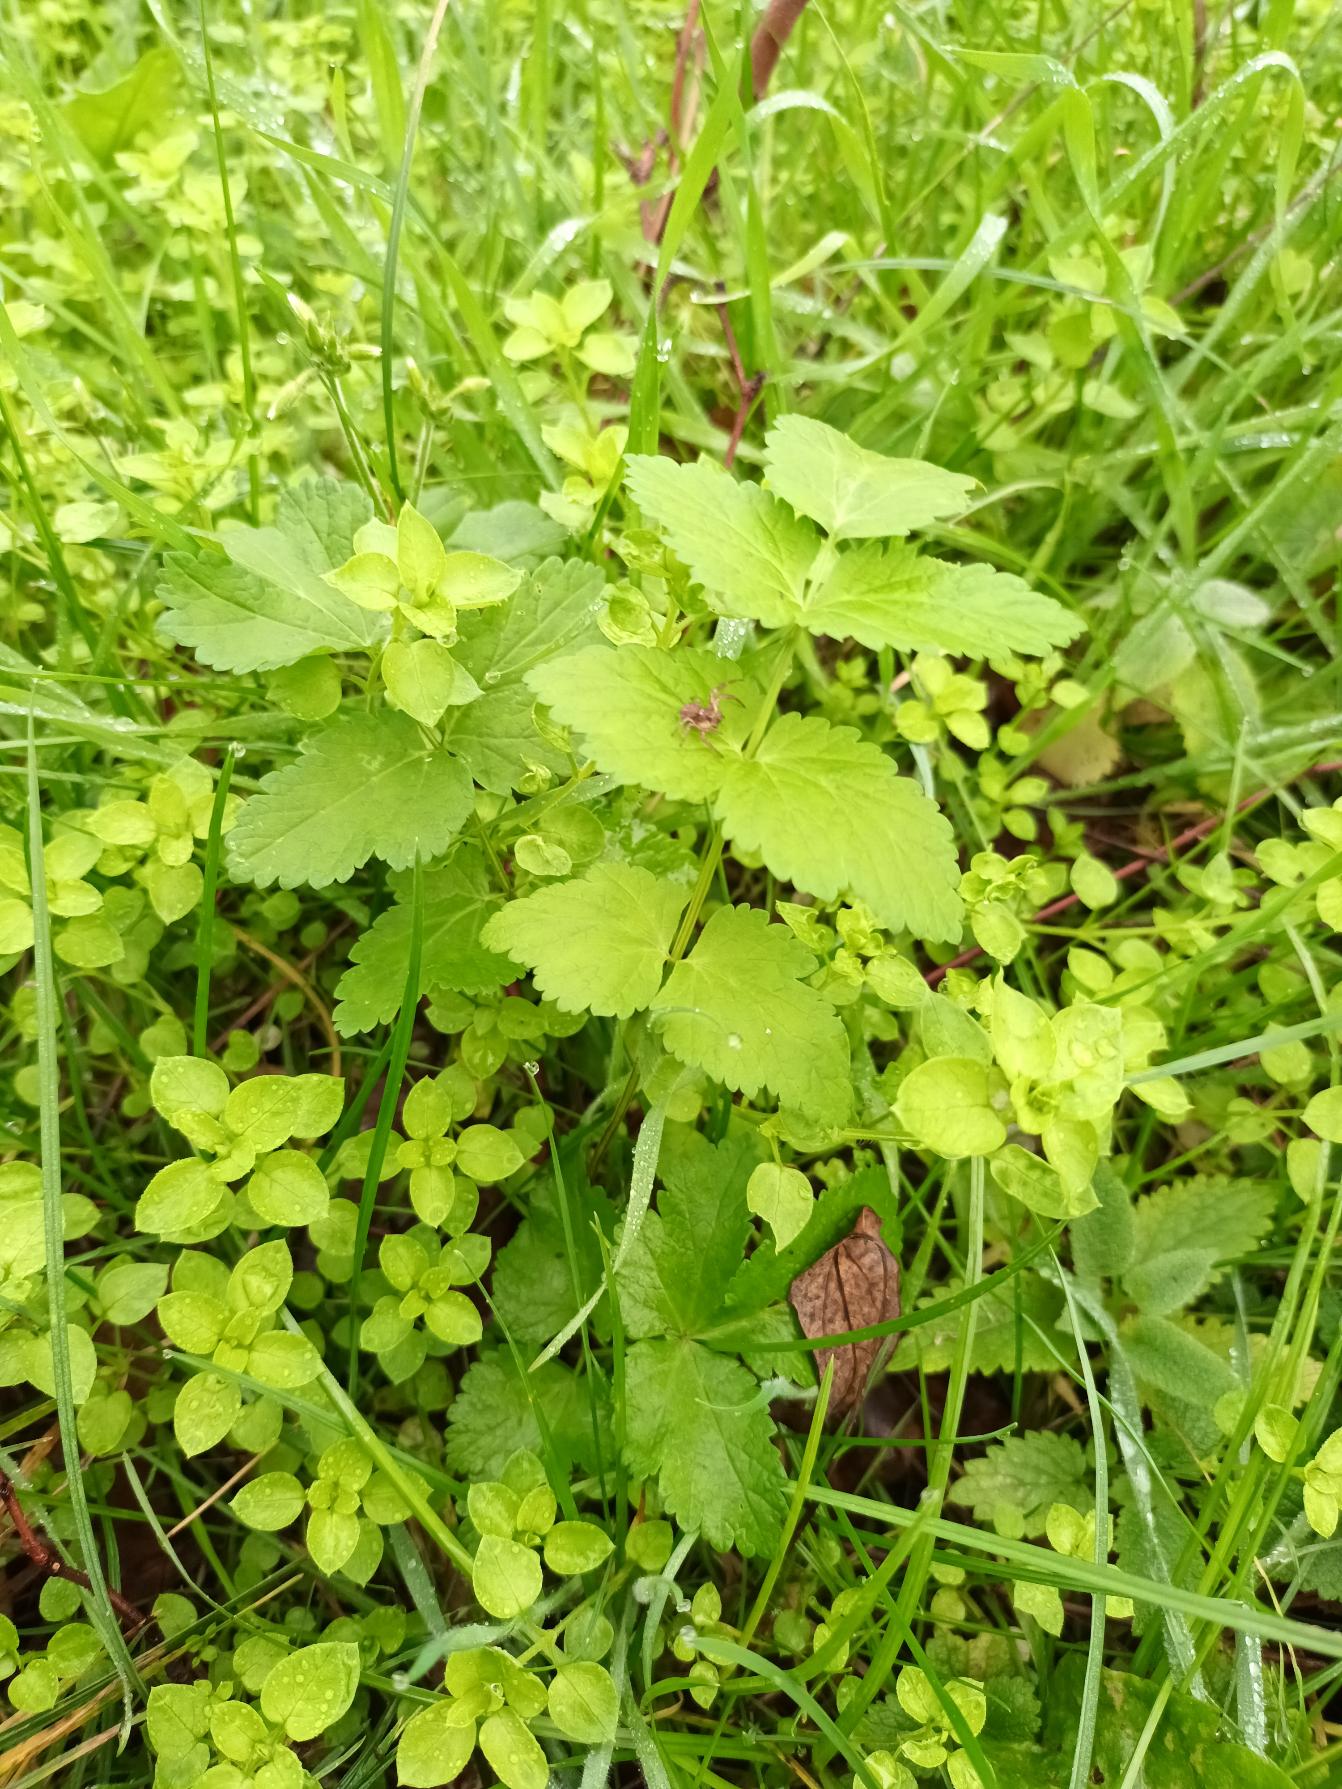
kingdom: Plantae
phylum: Tracheophyta
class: Magnoliopsida
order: Apiales
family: Apiaceae
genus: Pastinaca
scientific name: Pastinaca sativa
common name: Pastinak
